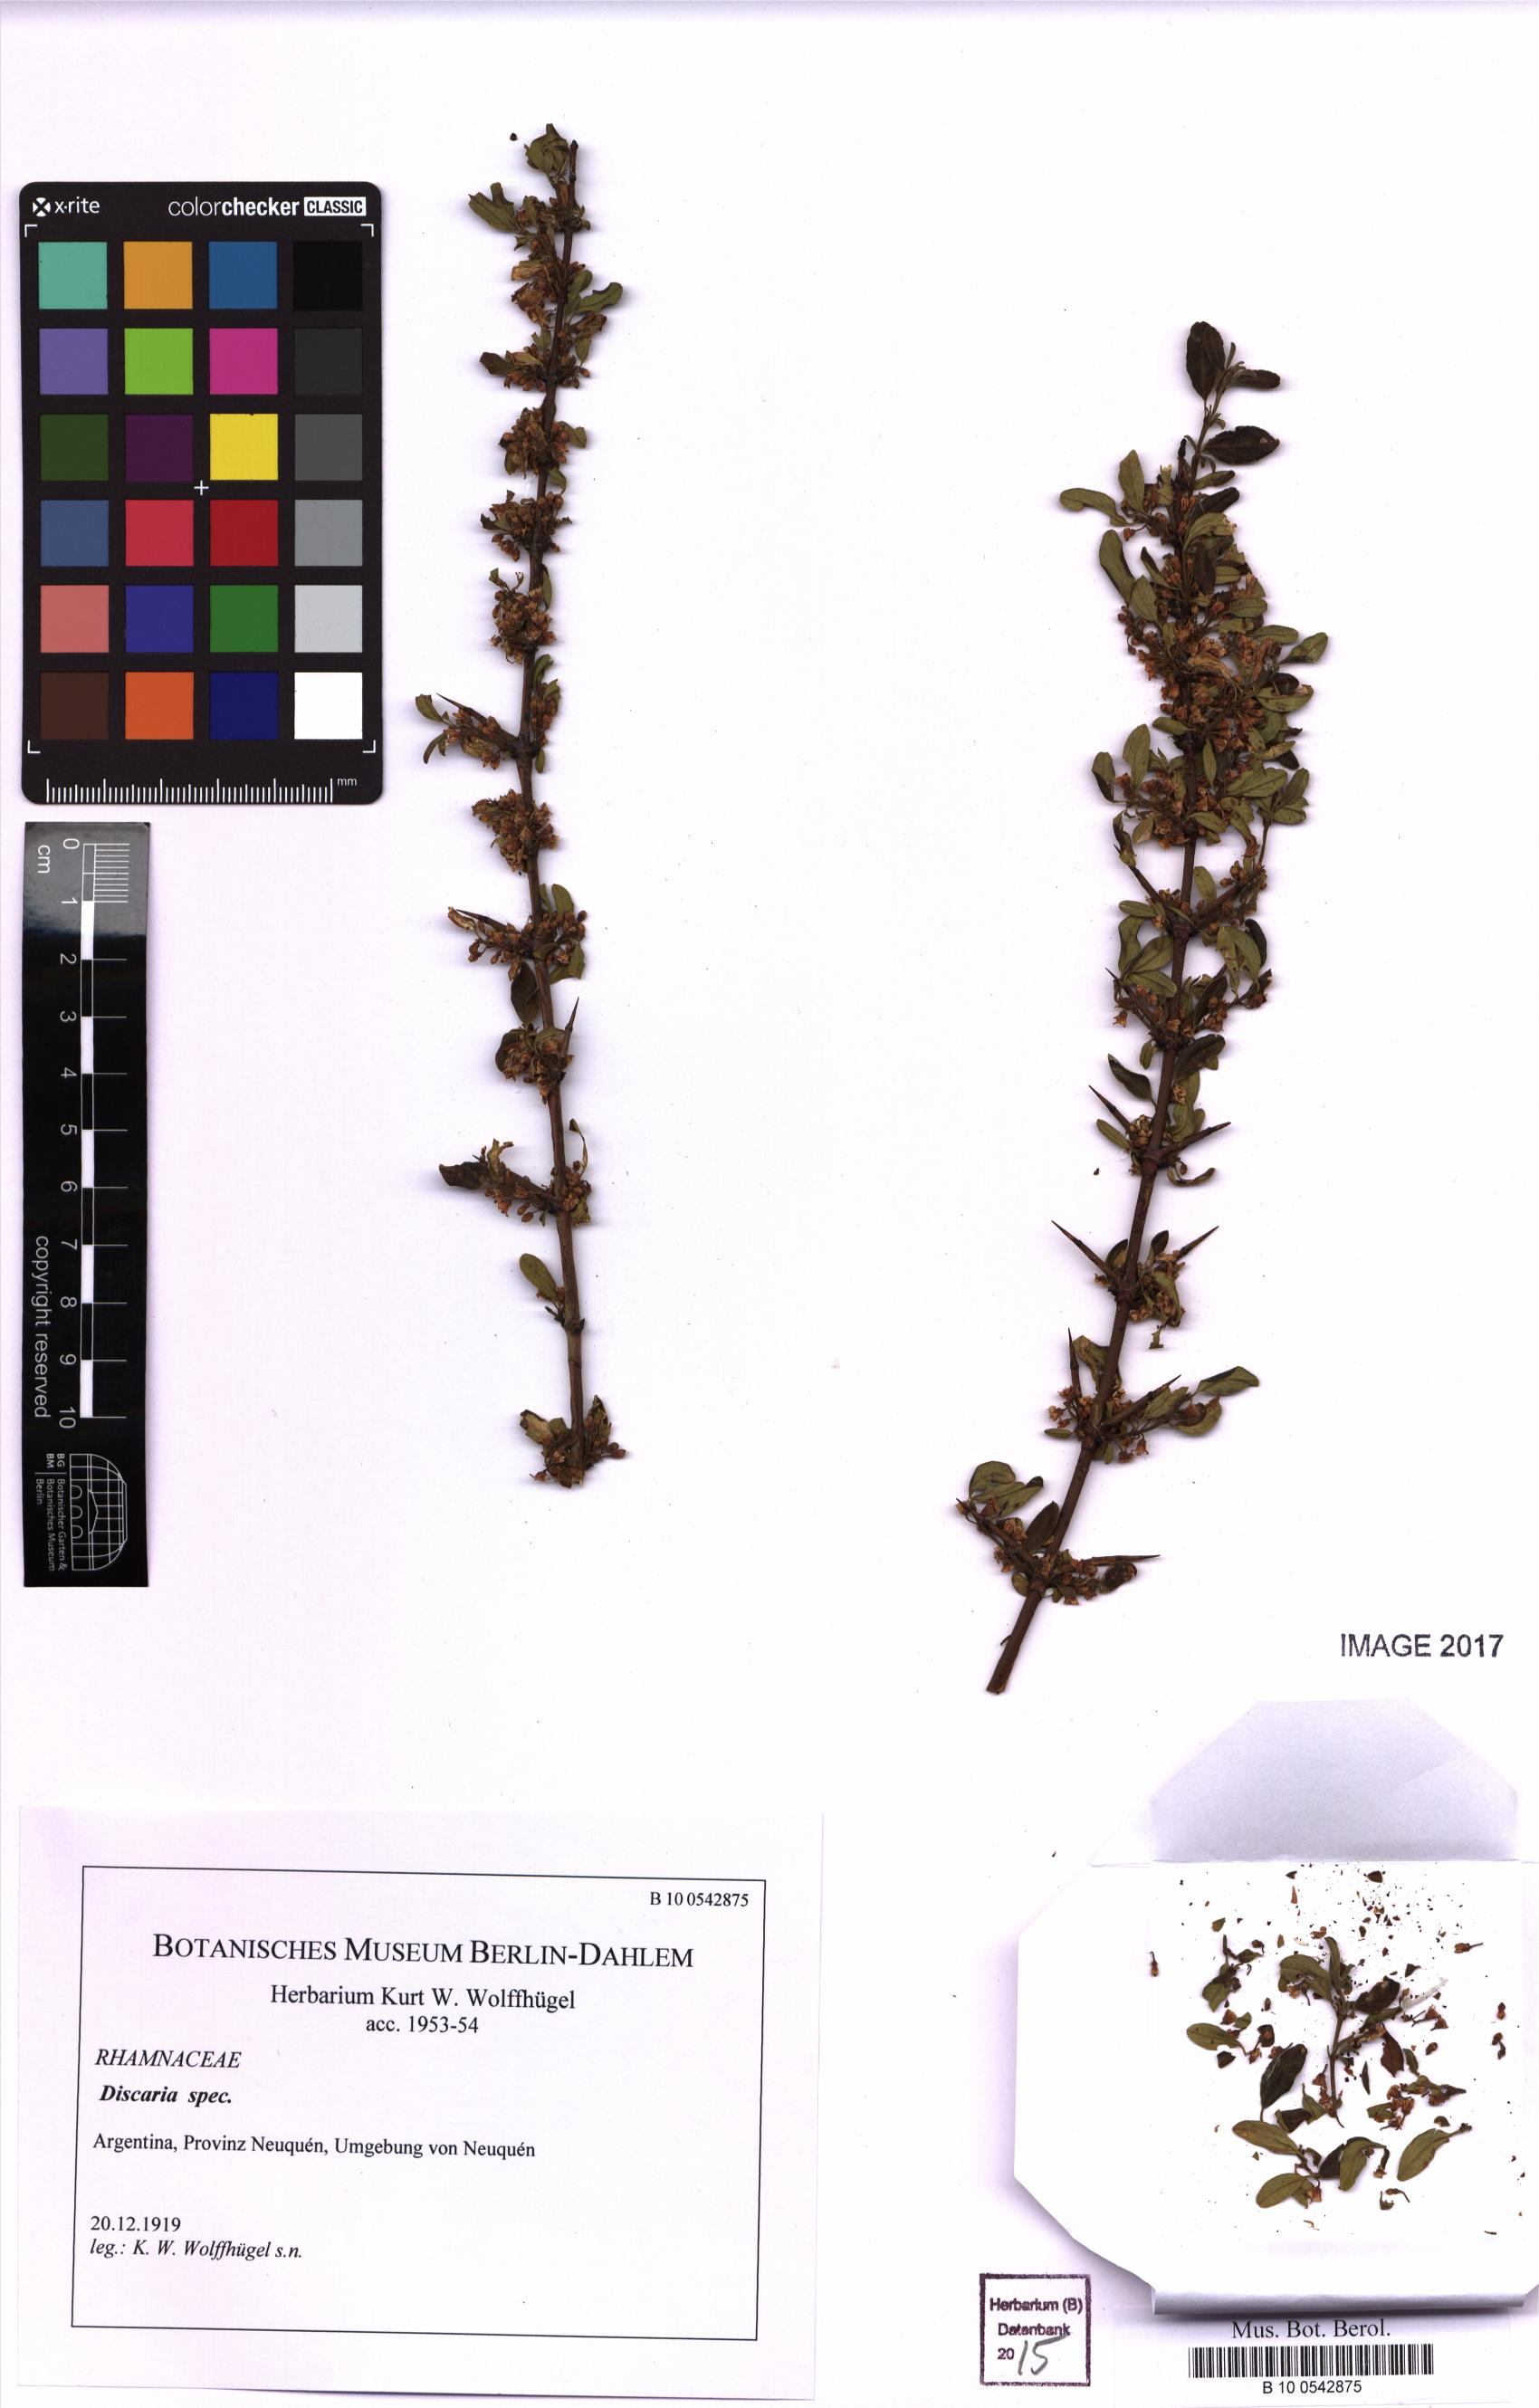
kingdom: Plantae
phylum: Tracheophyta
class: Magnoliopsida
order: Rosales
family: Rhamnaceae
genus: Discaria
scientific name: Discaria
